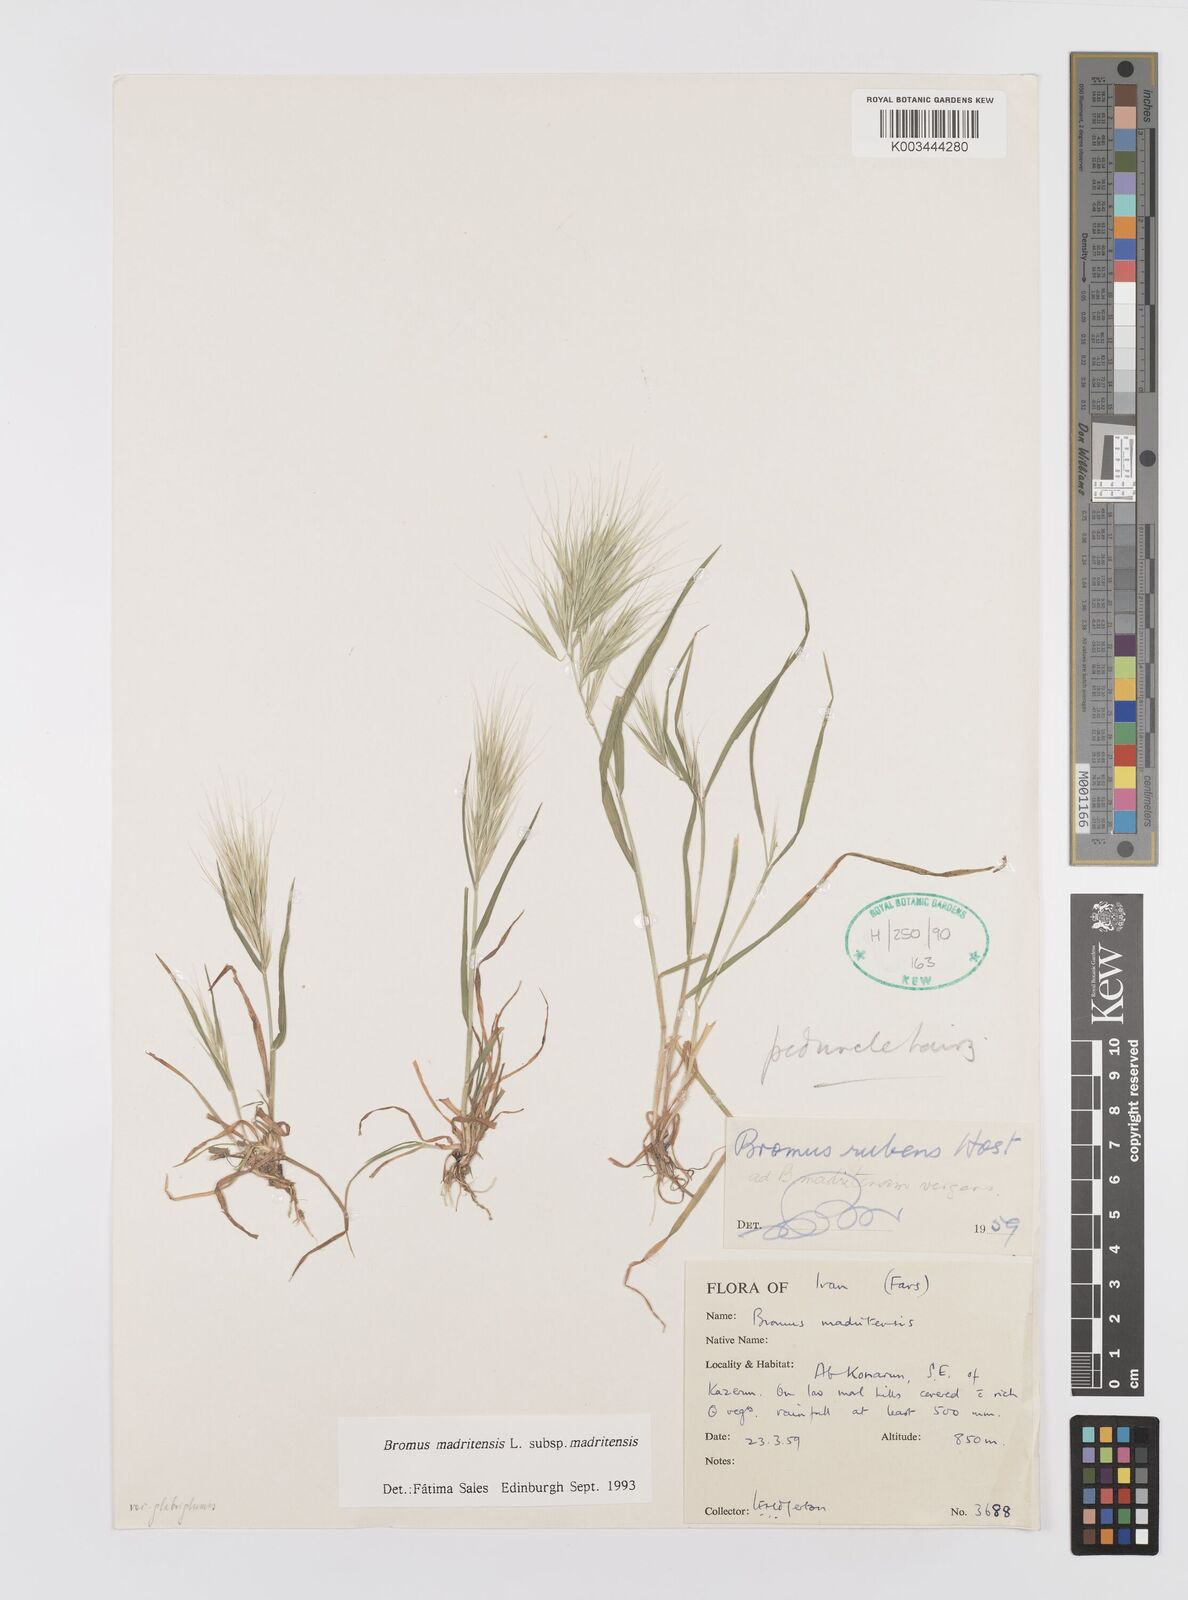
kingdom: Plantae
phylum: Tracheophyta
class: Liliopsida
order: Poales
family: Poaceae
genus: Bromus
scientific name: Bromus madritensis
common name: Compact brome
